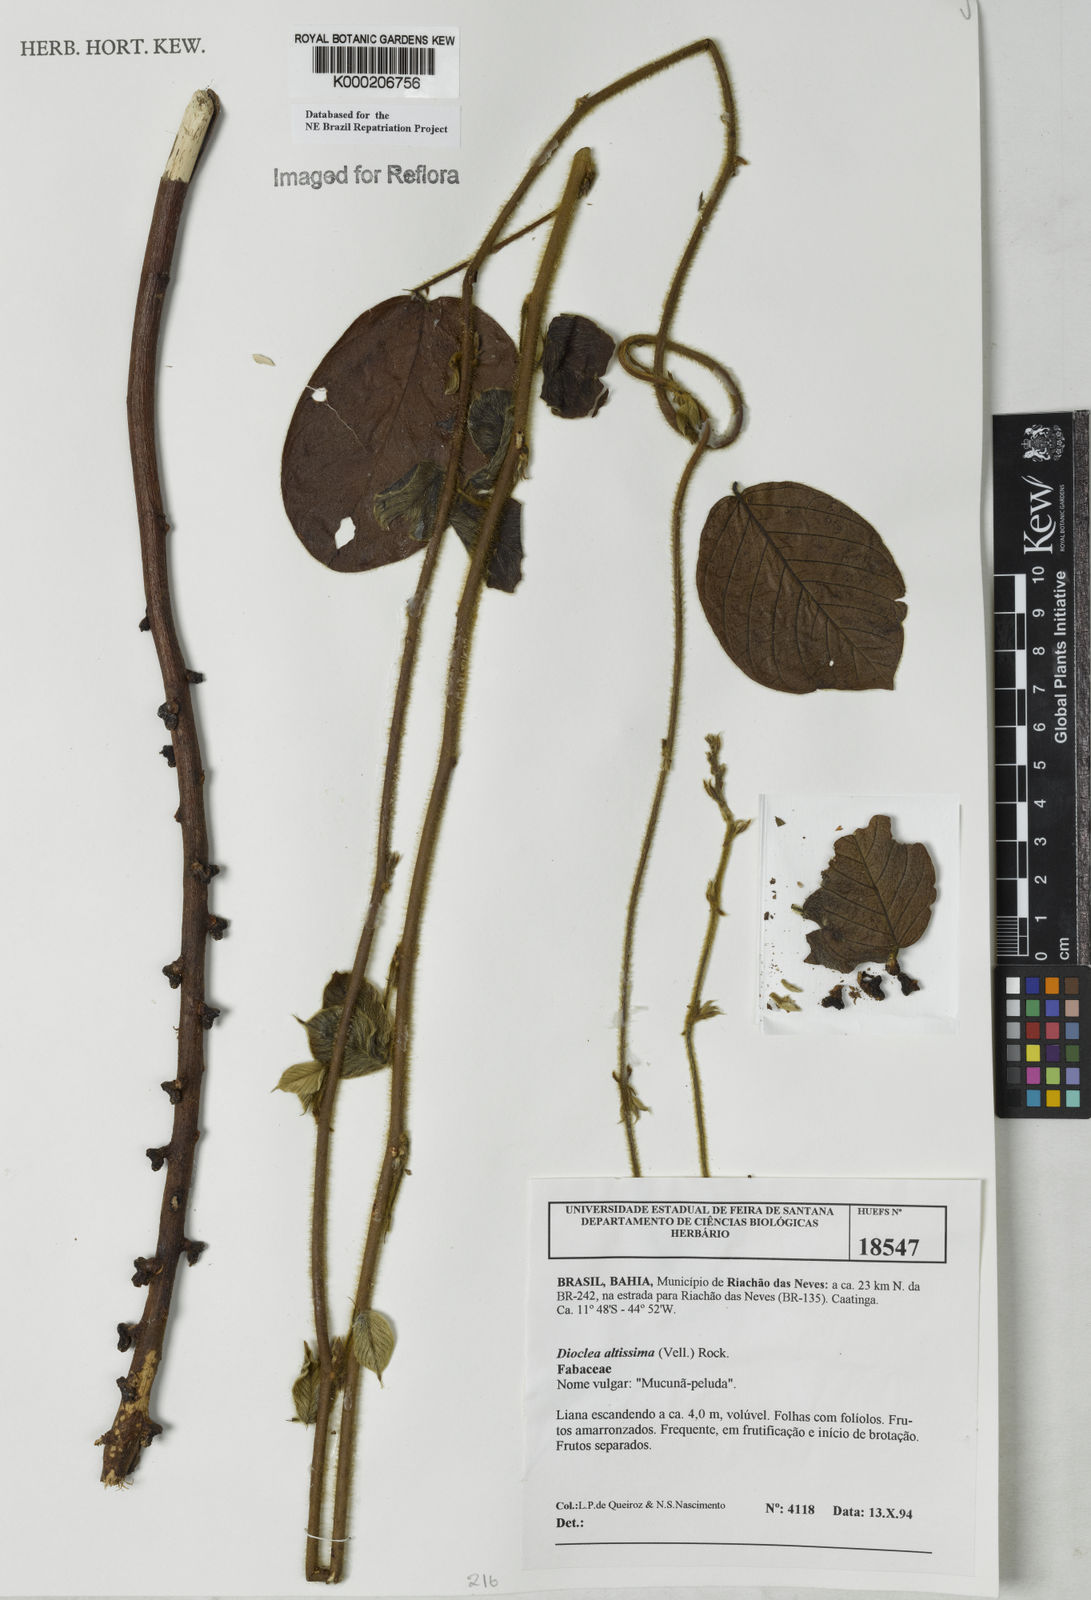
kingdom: Plantae
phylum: Tracheophyta
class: Magnoliopsida
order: Fabales
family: Fabaceae
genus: Macropsychanthus
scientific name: Macropsychanthus violaceus
